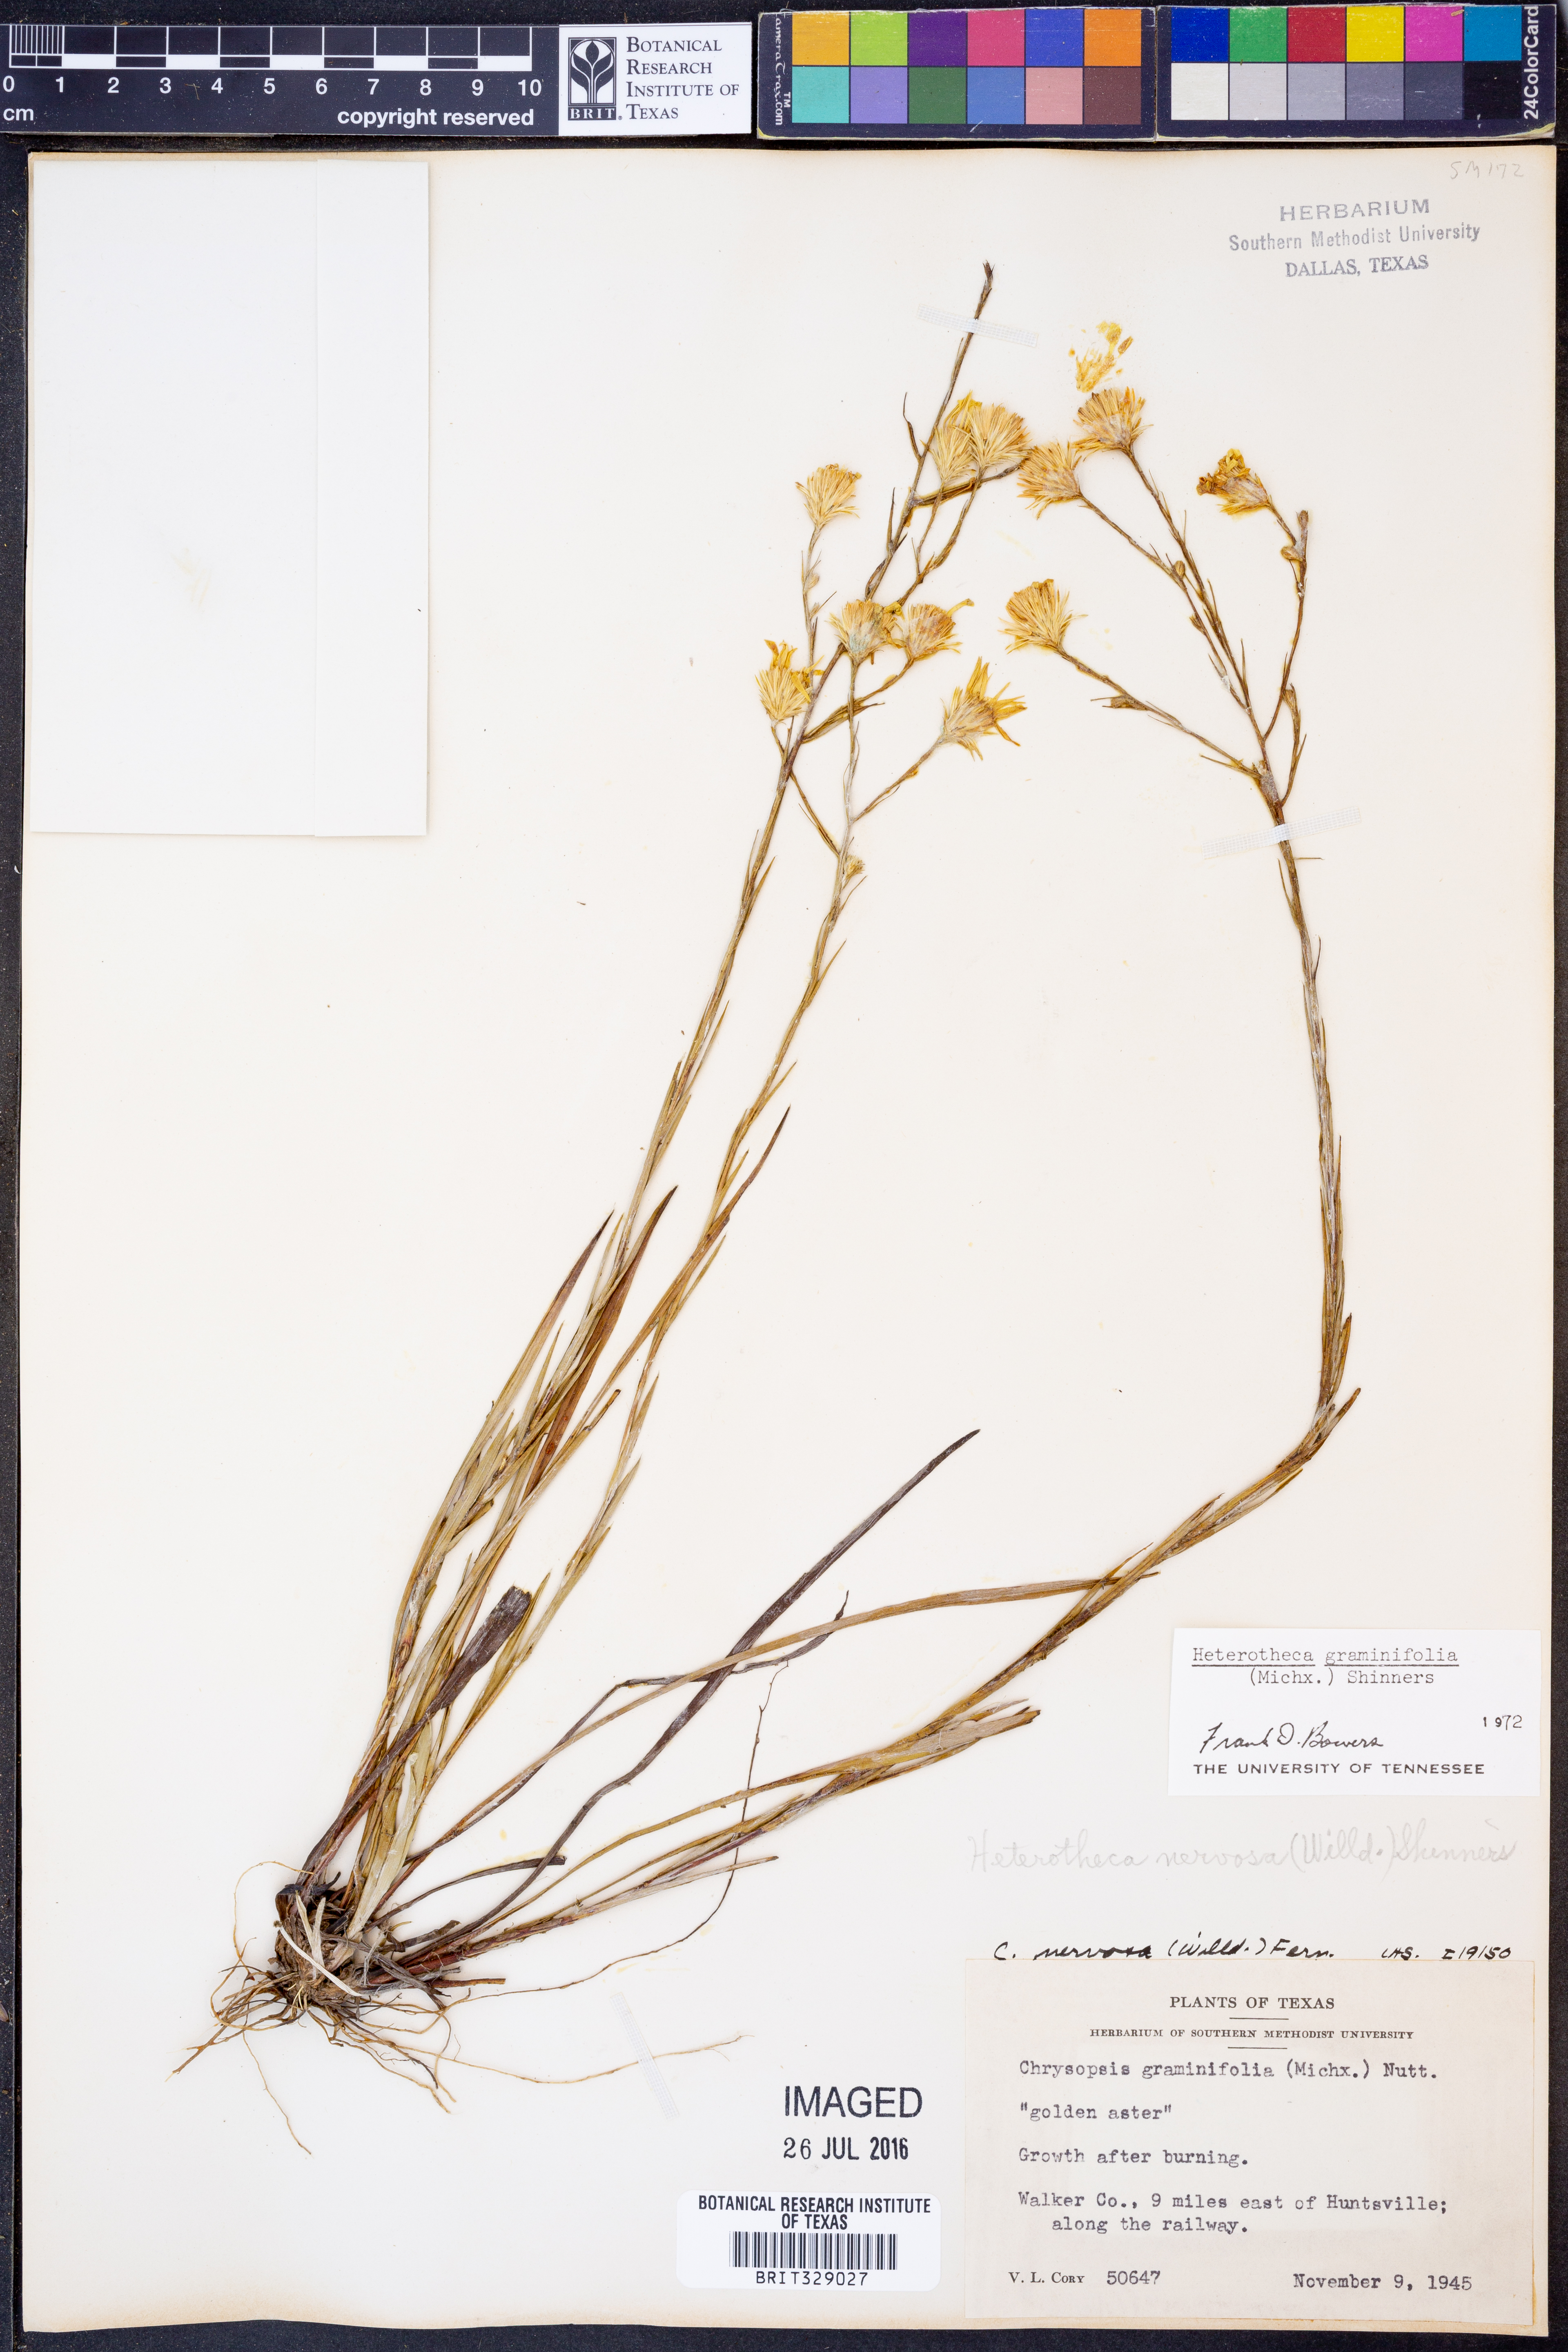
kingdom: Plantae
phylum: Tracheophyta
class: Magnoliopsida
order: Asterales
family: Asteraceae
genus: Pityopsis
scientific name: Pityopsis graminifolia
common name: Grass-leaf golden-aster
